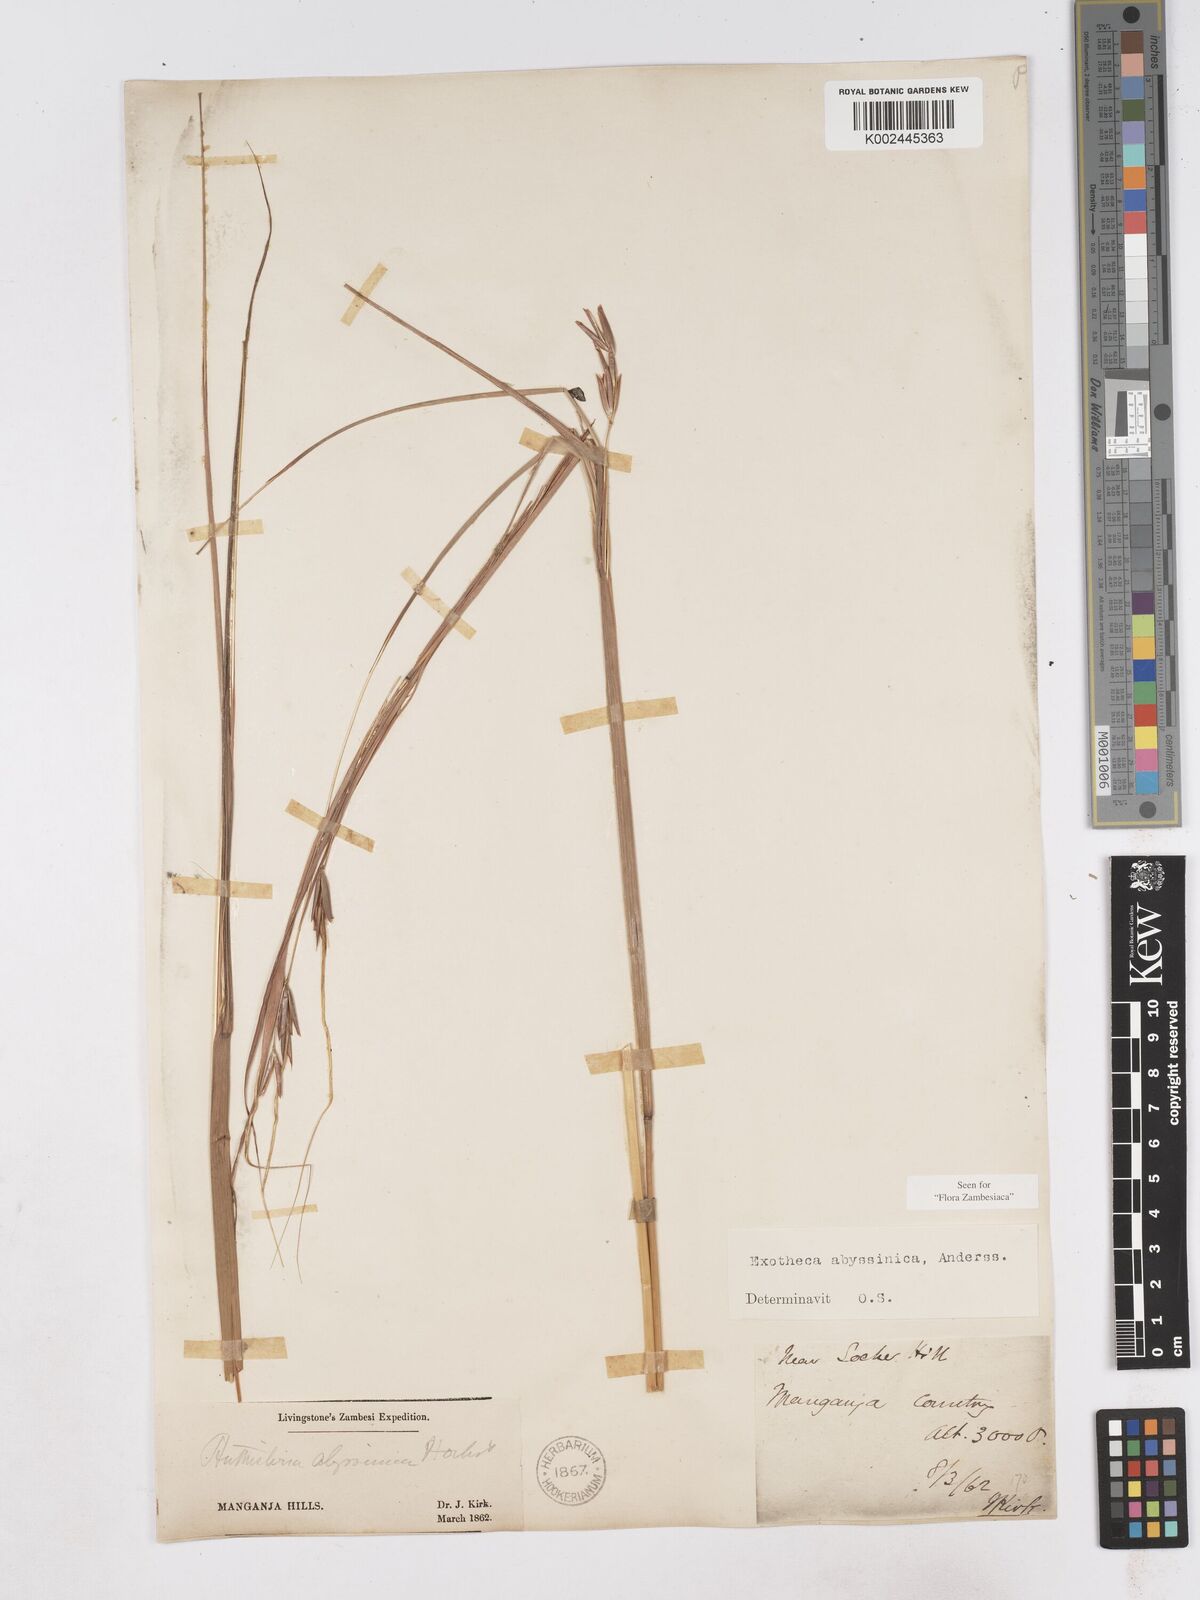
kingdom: Plantae
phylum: Tracheophyta
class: Liliopsida
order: Poales
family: Poaceae
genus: Exotheca
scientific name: Exotheca abyssinica
